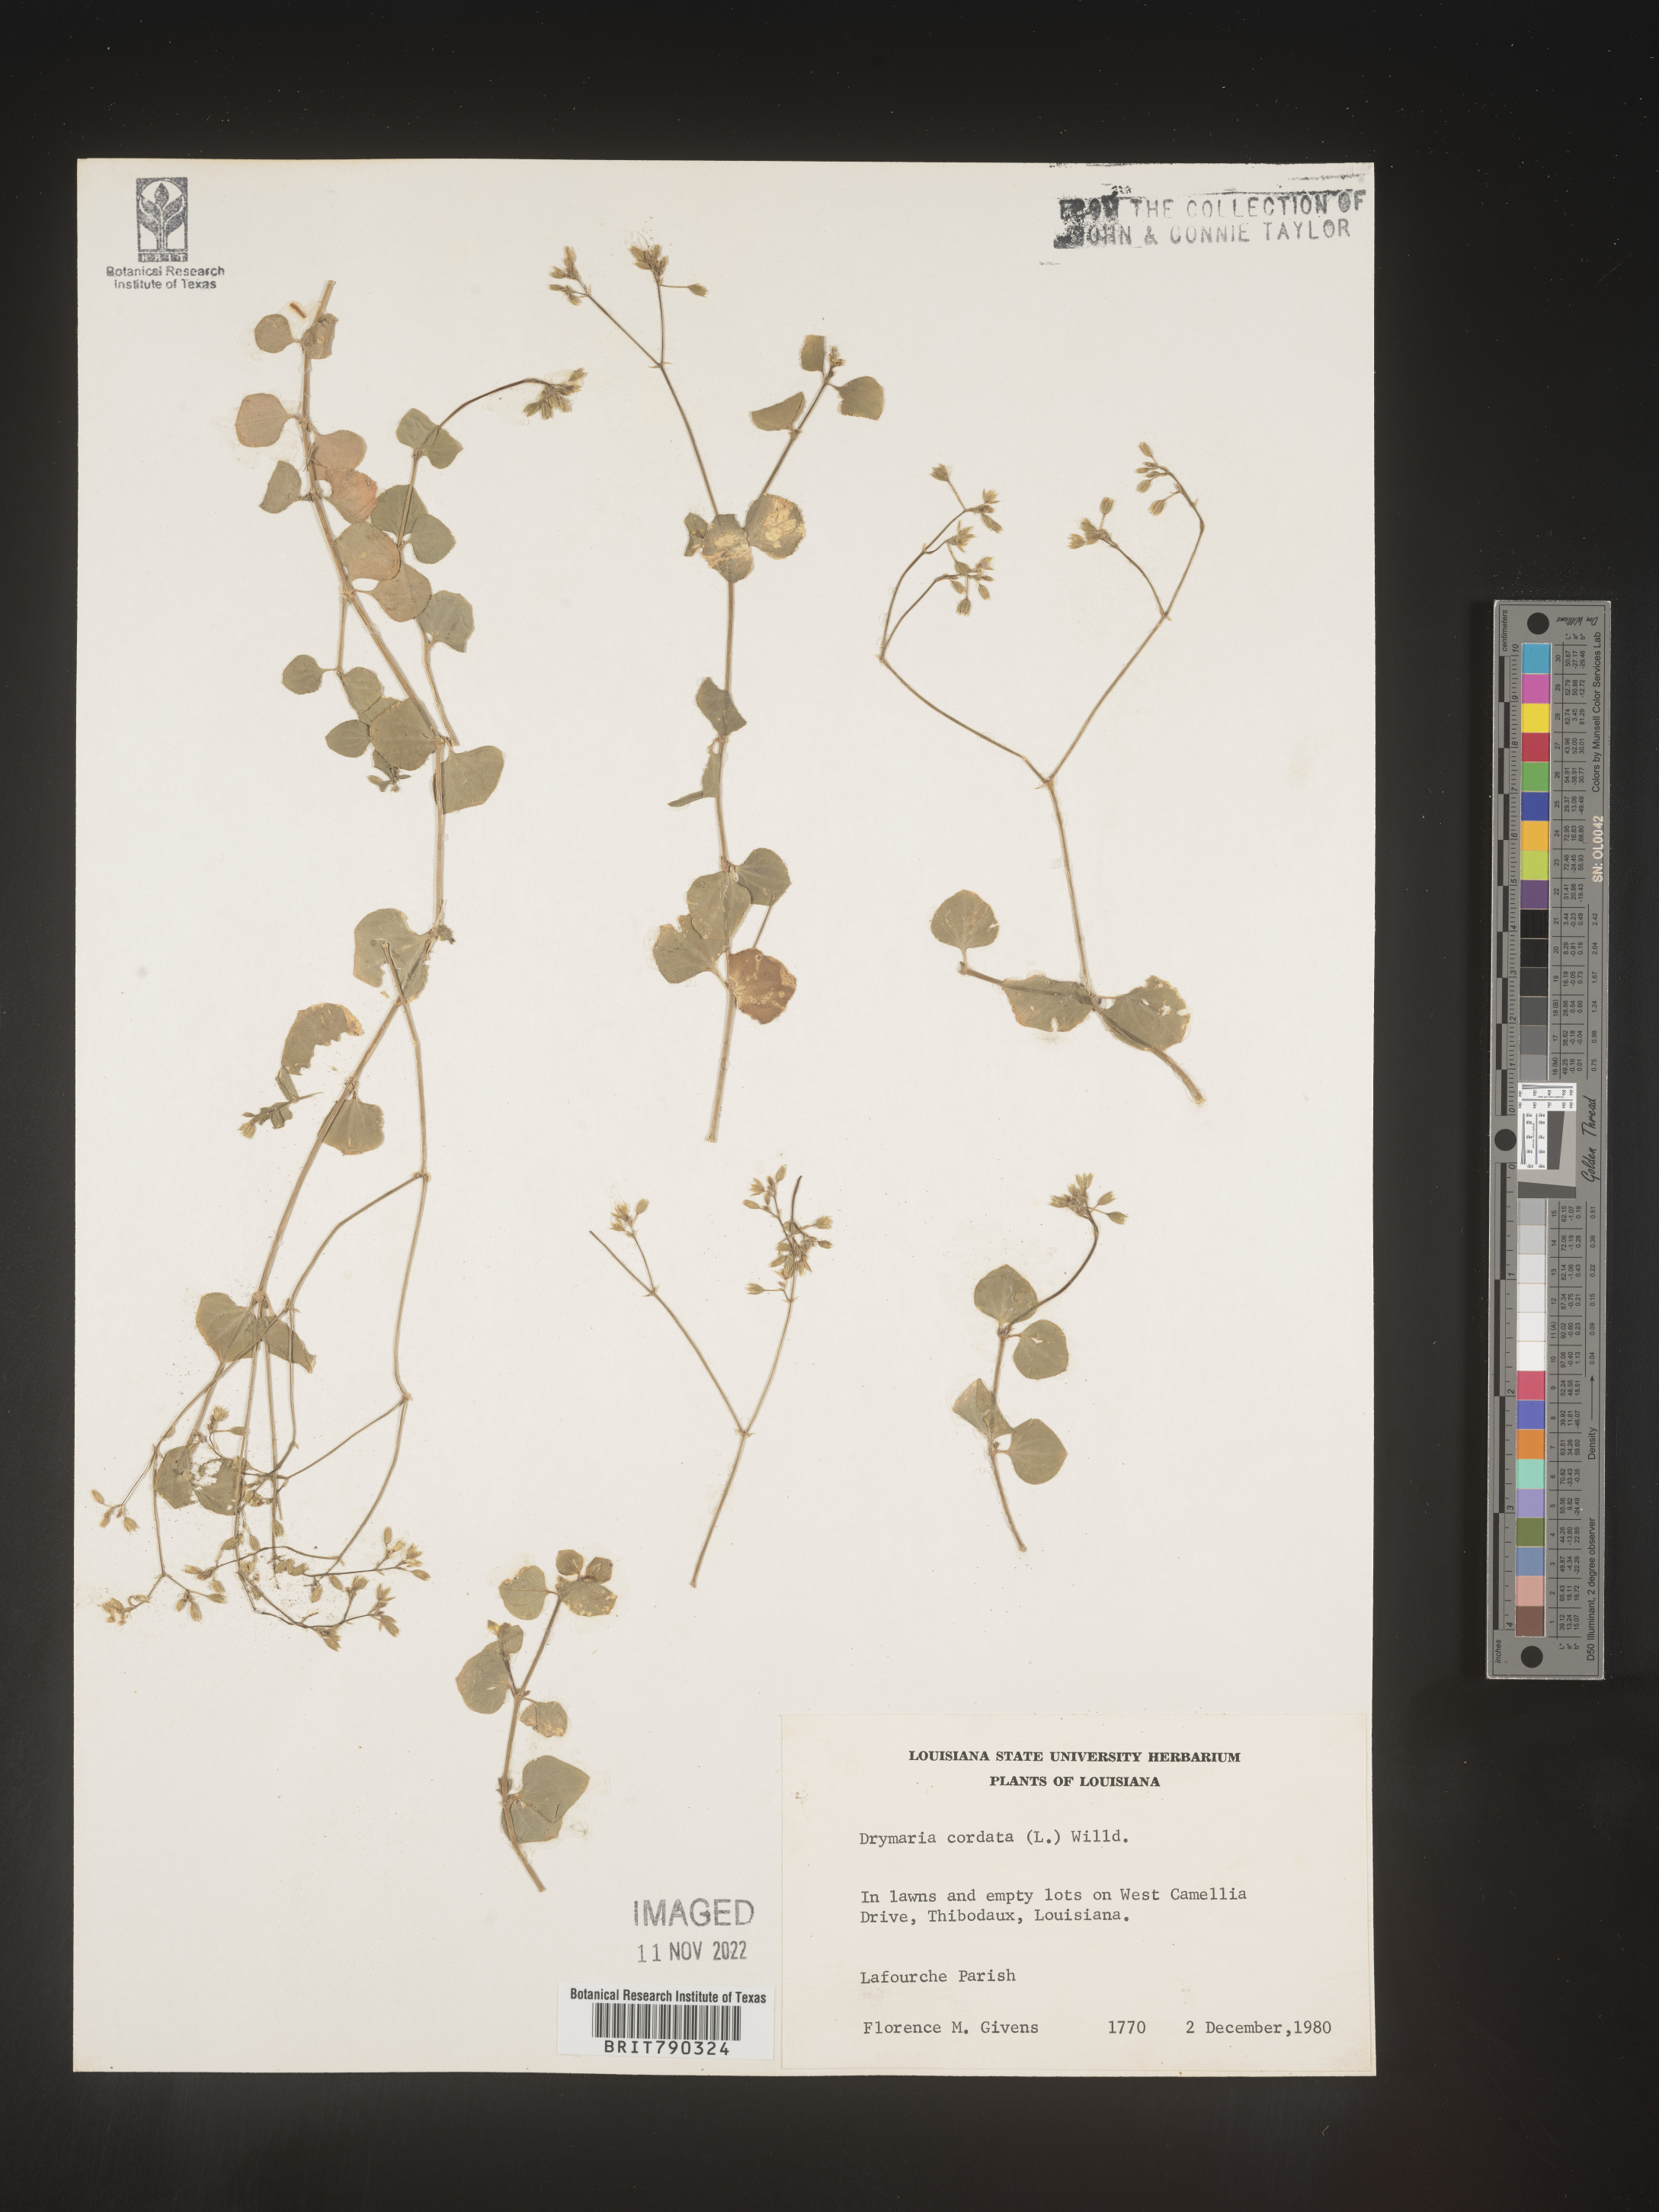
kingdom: Plantae
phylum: Tracheophyta
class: Magnoliopsida
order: Caryophyllales
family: Caryophyllaceae
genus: Drymaria
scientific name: Drymaria
